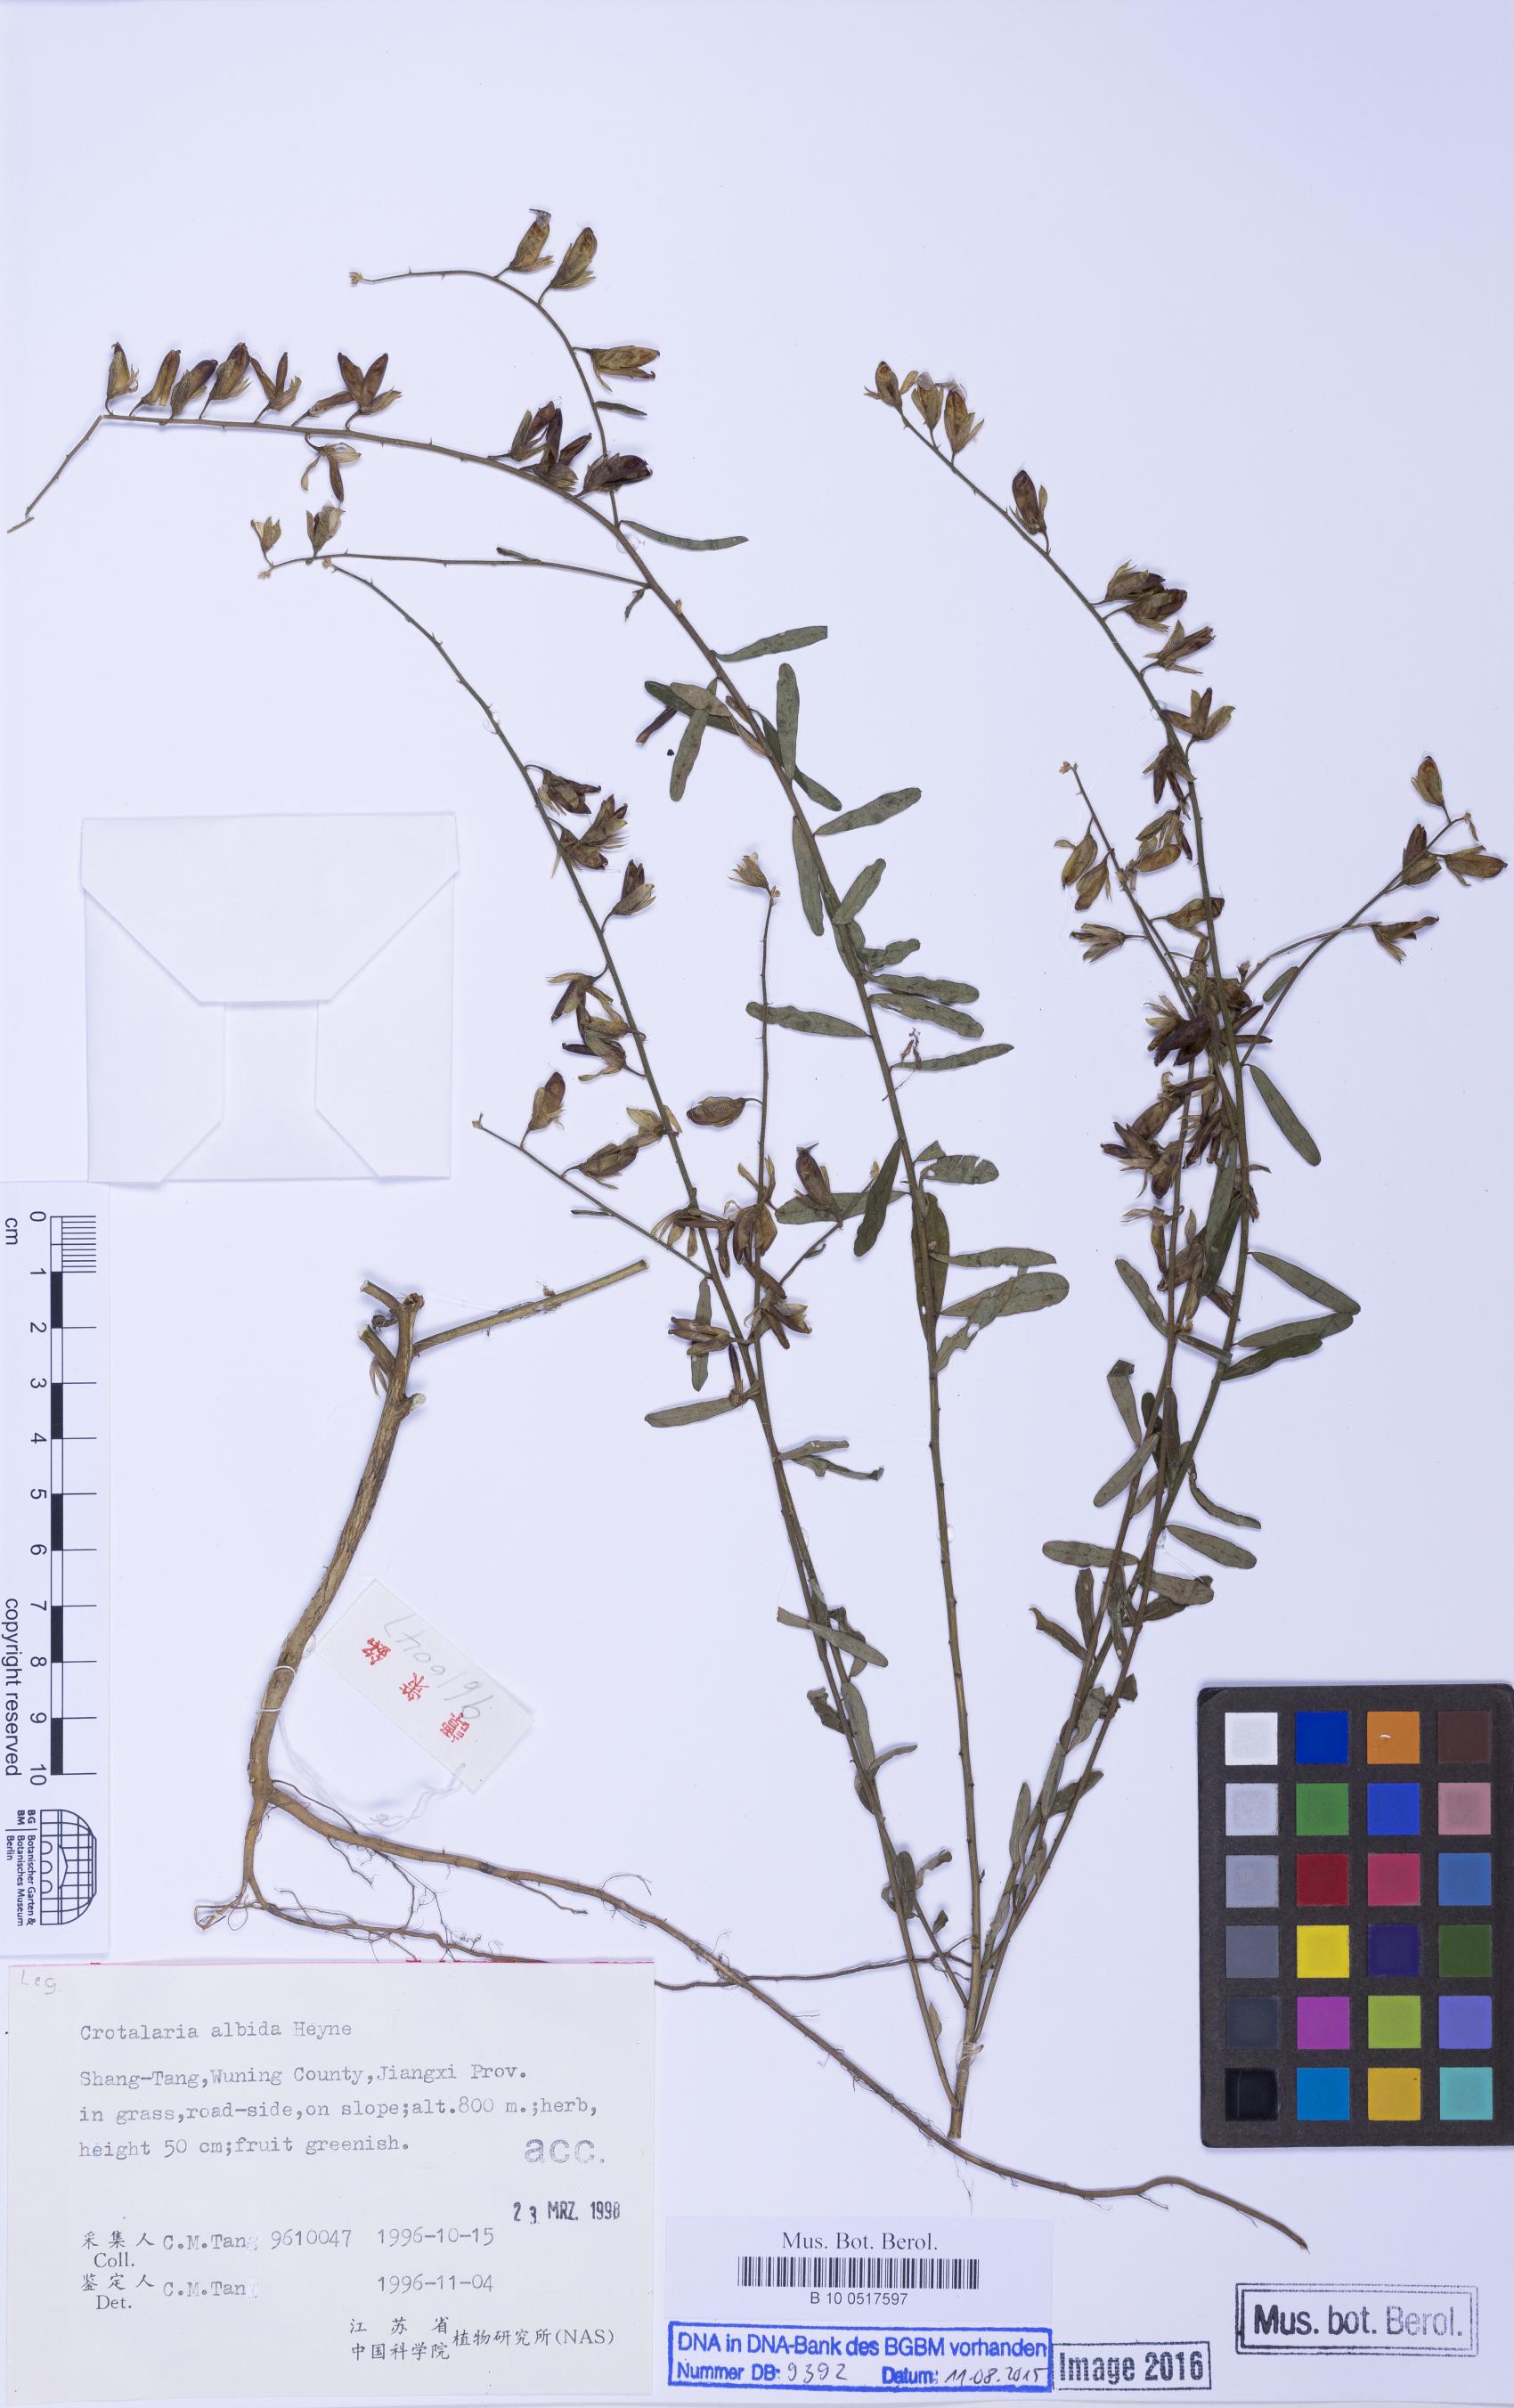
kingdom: Plantae
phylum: Tracheophyta
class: Magnoliopsida
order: Fabales
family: Fabaceae
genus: Crotalaria
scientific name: Crotalaria albida
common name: Taiwan crotalaria
